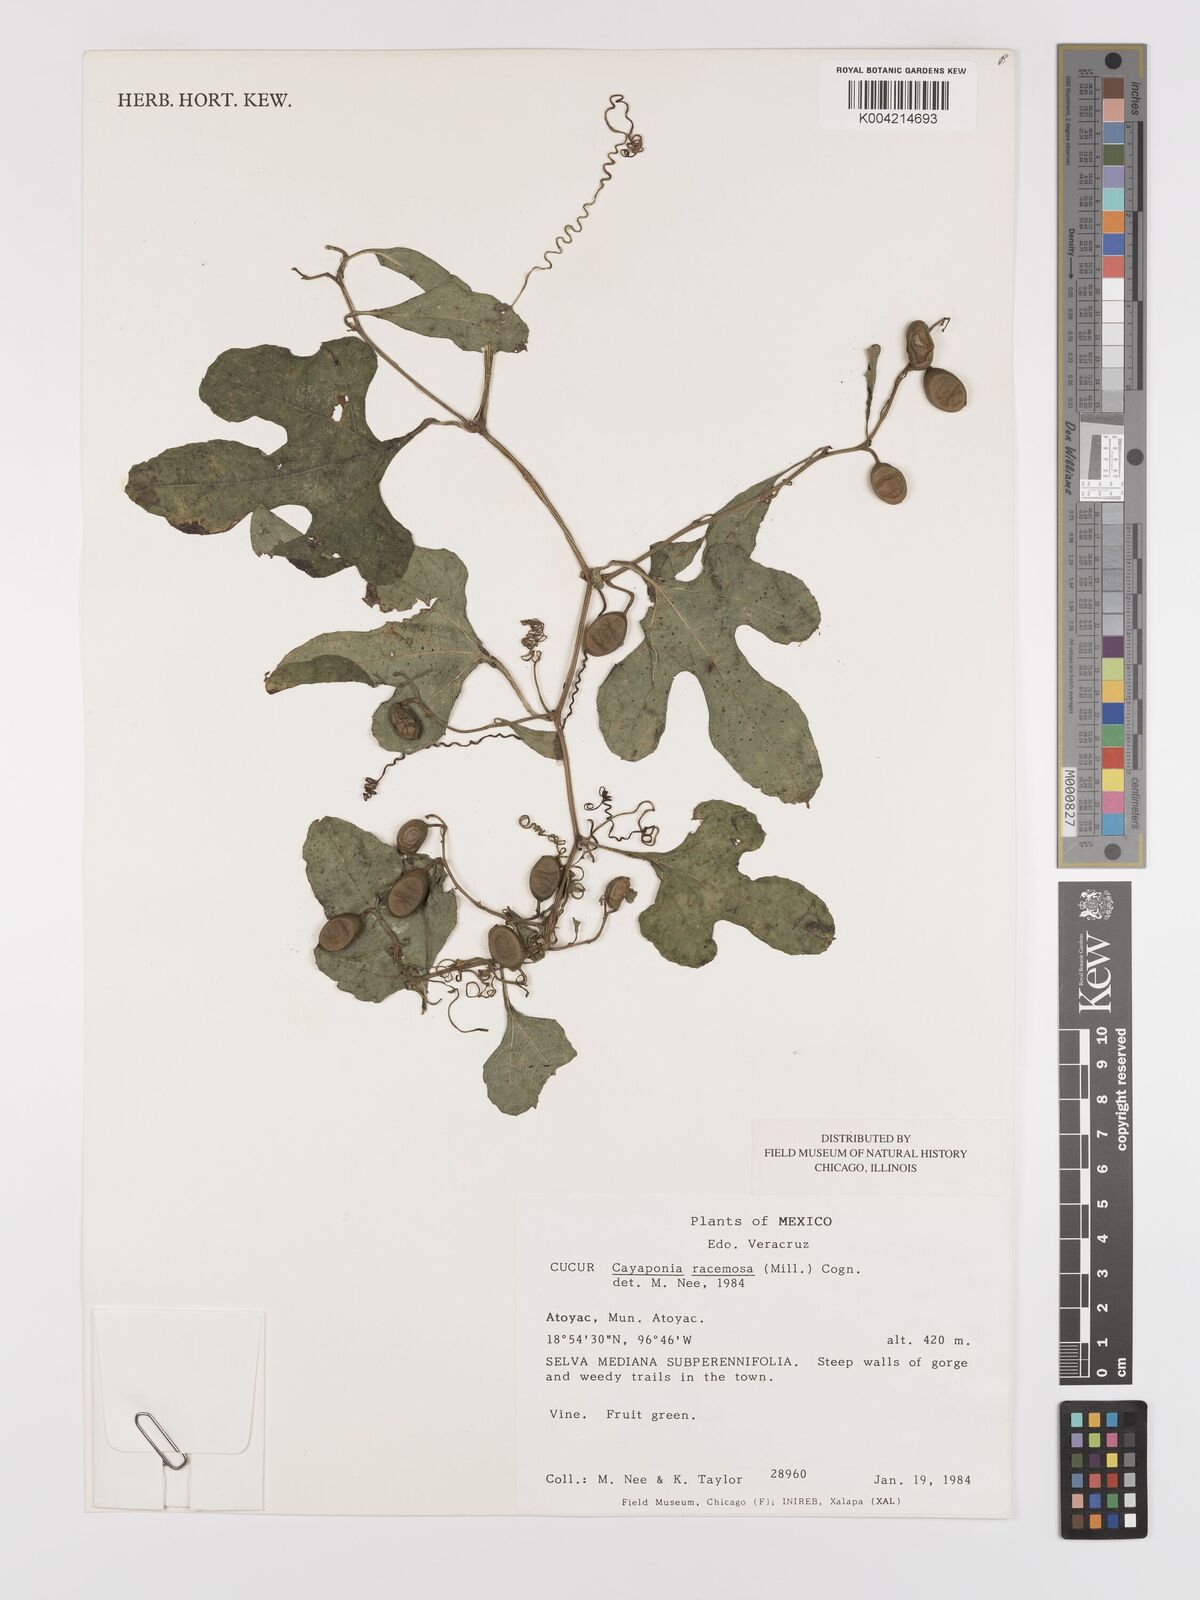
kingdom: Plantae
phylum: Tracheophyta
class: Magnoliopsida
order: Cucurbitales
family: Cucurbitaceae
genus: Cayaponia
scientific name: Cayaponia racemosa
